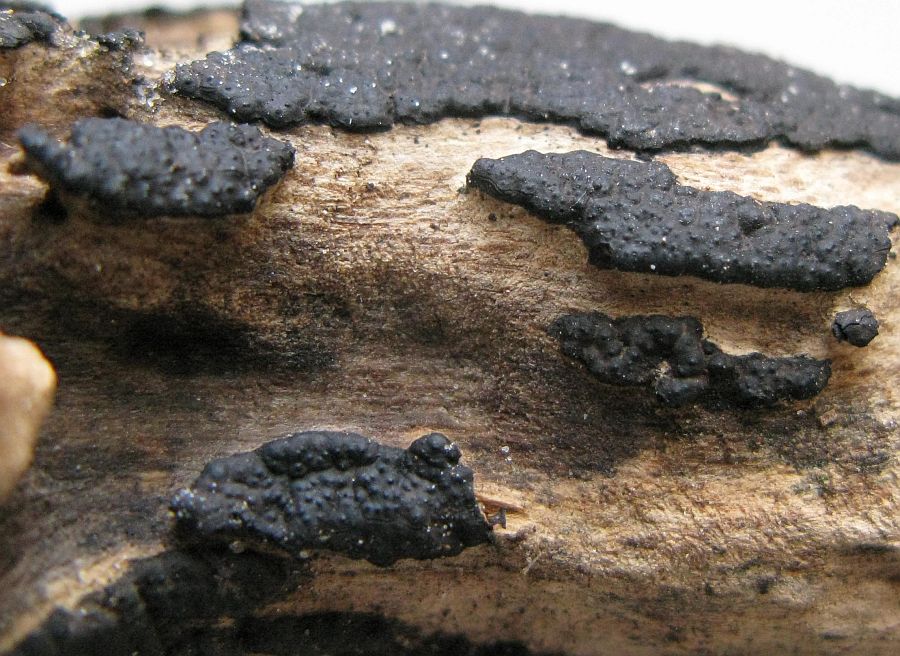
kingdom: Fungi
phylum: Ascomycota
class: Sordariomycetes
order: Xylariales
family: Xylariaceae
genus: Nemania
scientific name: Nemania serpens
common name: almindelig kuldyne
